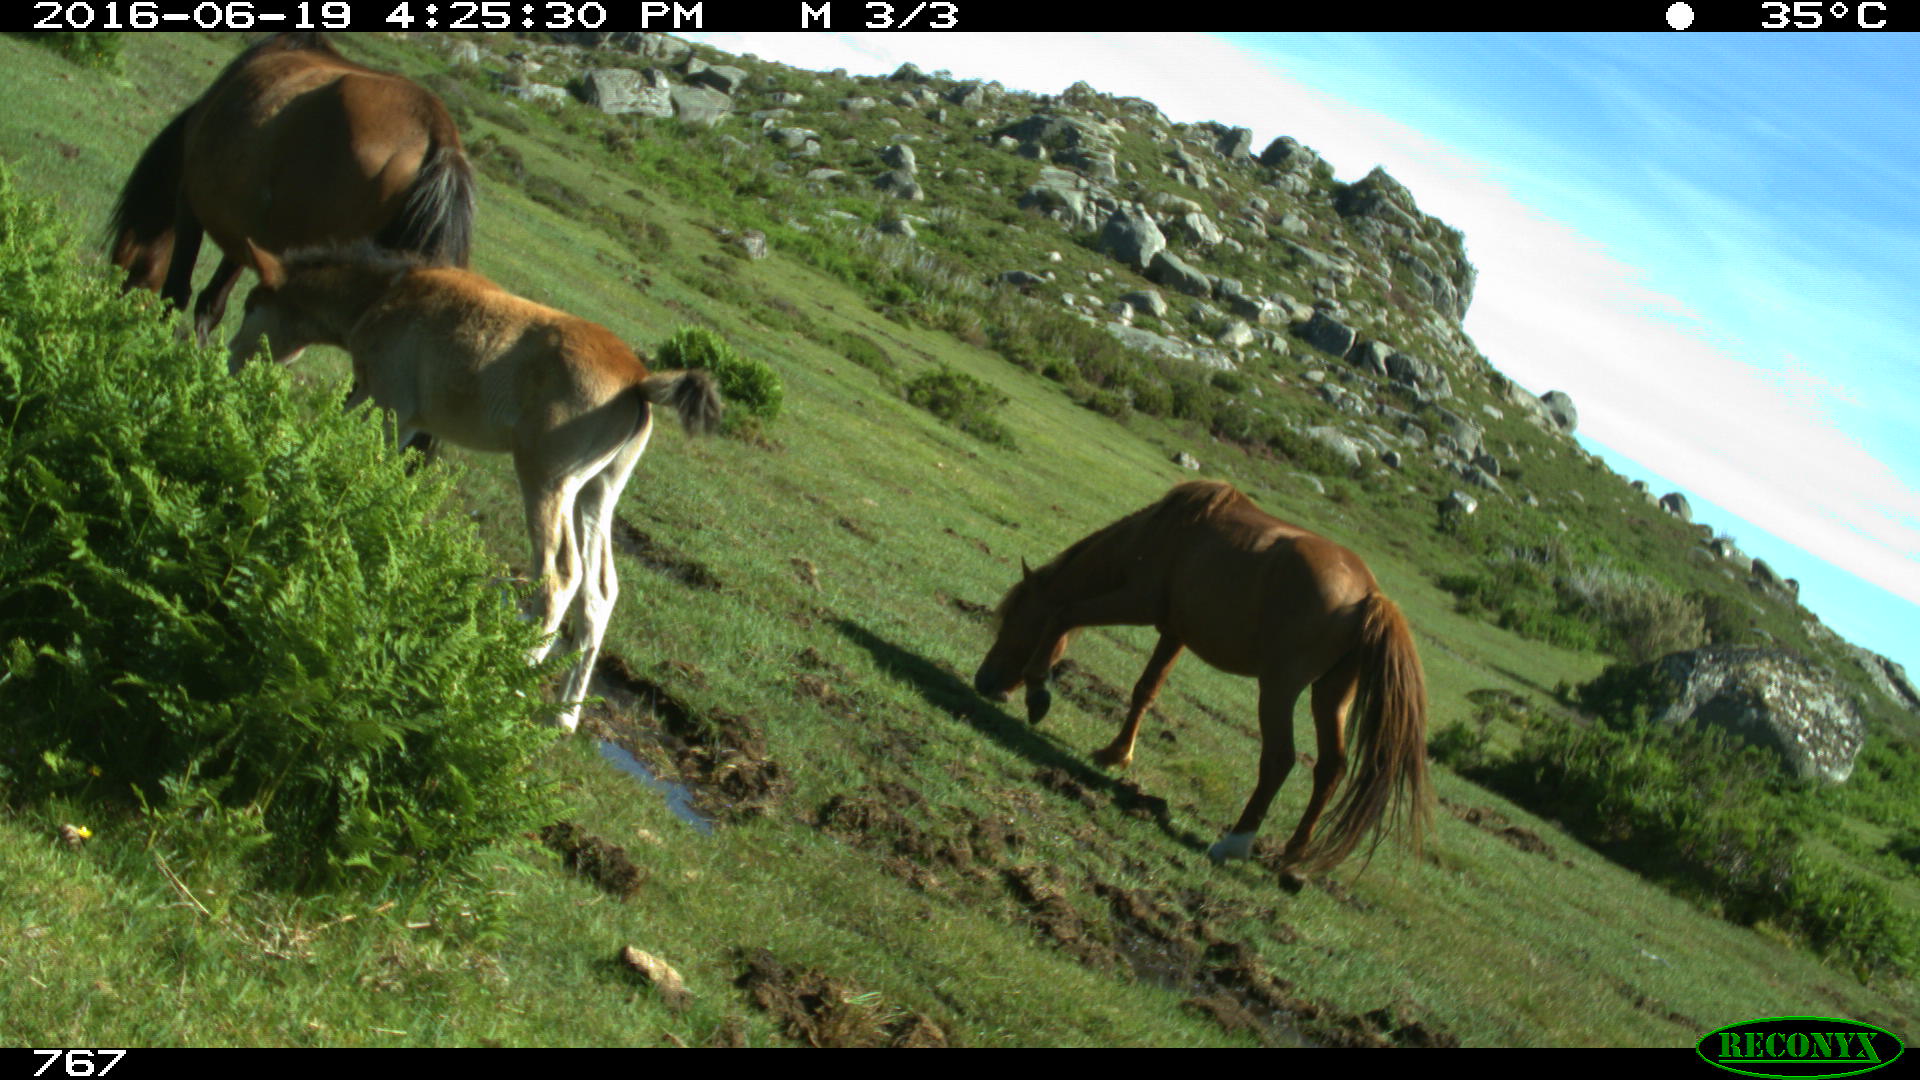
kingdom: Animalia
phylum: Chordata
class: Mammalia
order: Perissodactyla
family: Equidae
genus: Equus
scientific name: Equus caballus
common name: Horse
